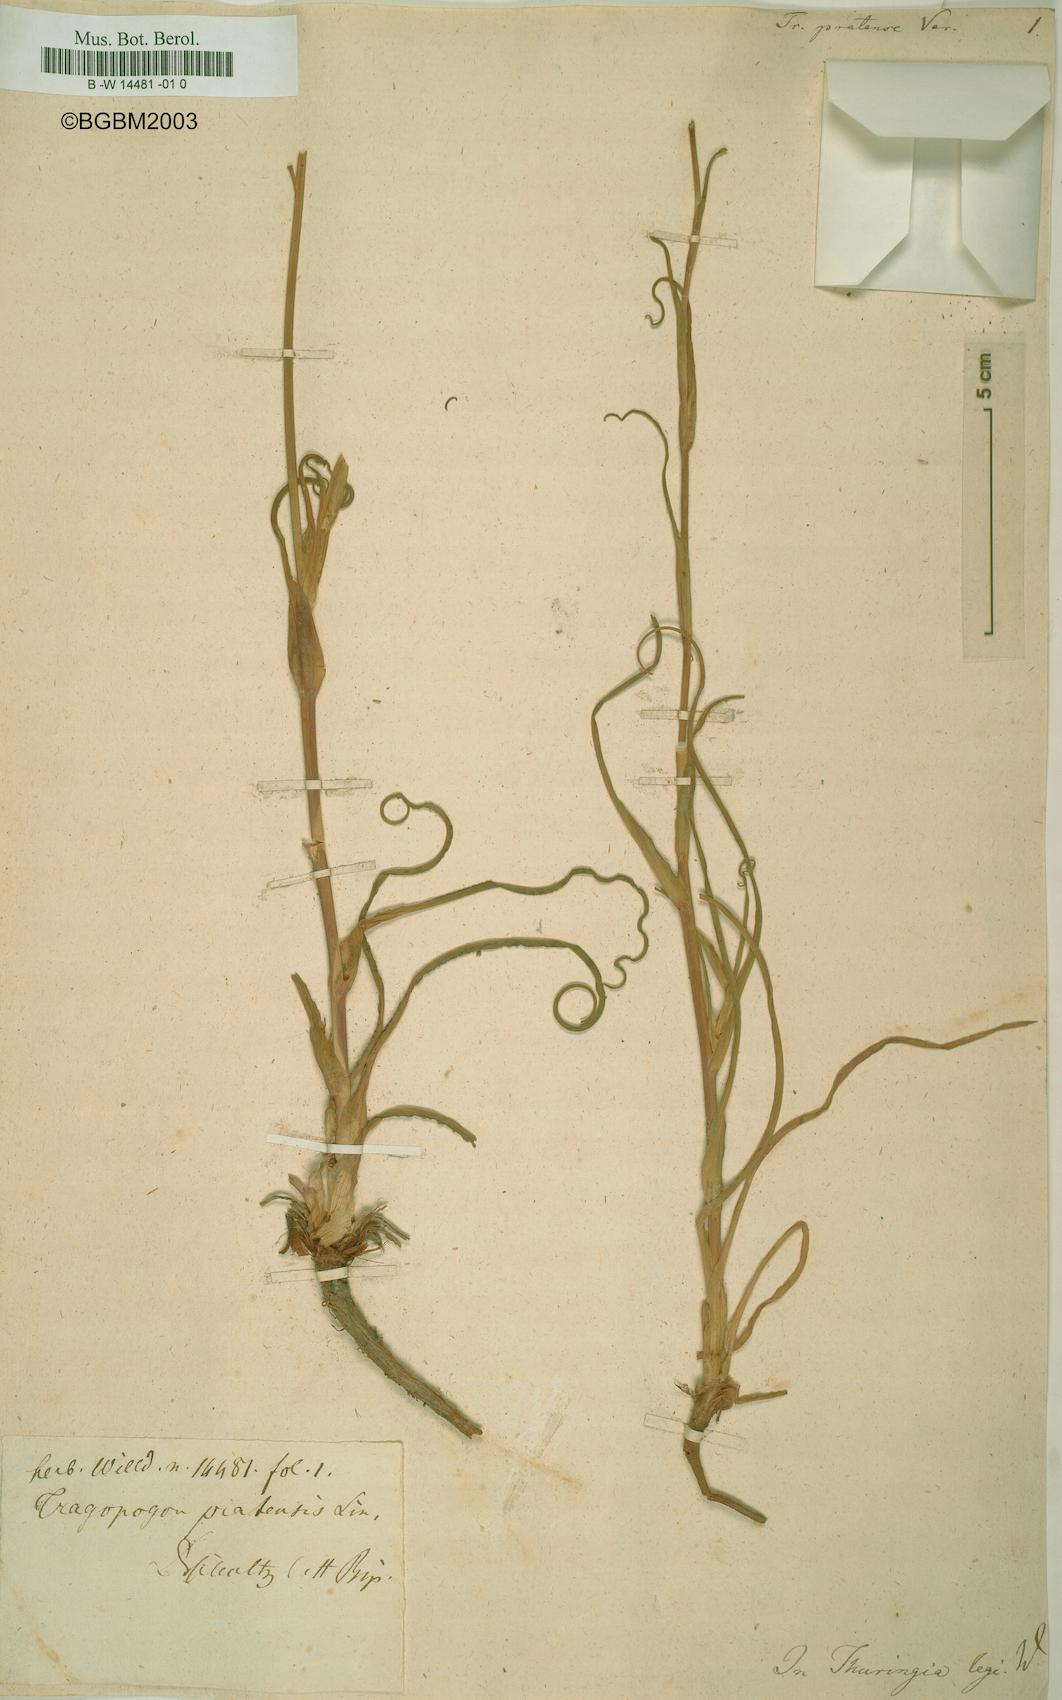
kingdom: Plantae
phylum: Tracheophyta
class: Magnoliopsida
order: Asterales
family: Asteraceae
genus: Tragopogon
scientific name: Tragopogon pratensis
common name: Goat's-beard
